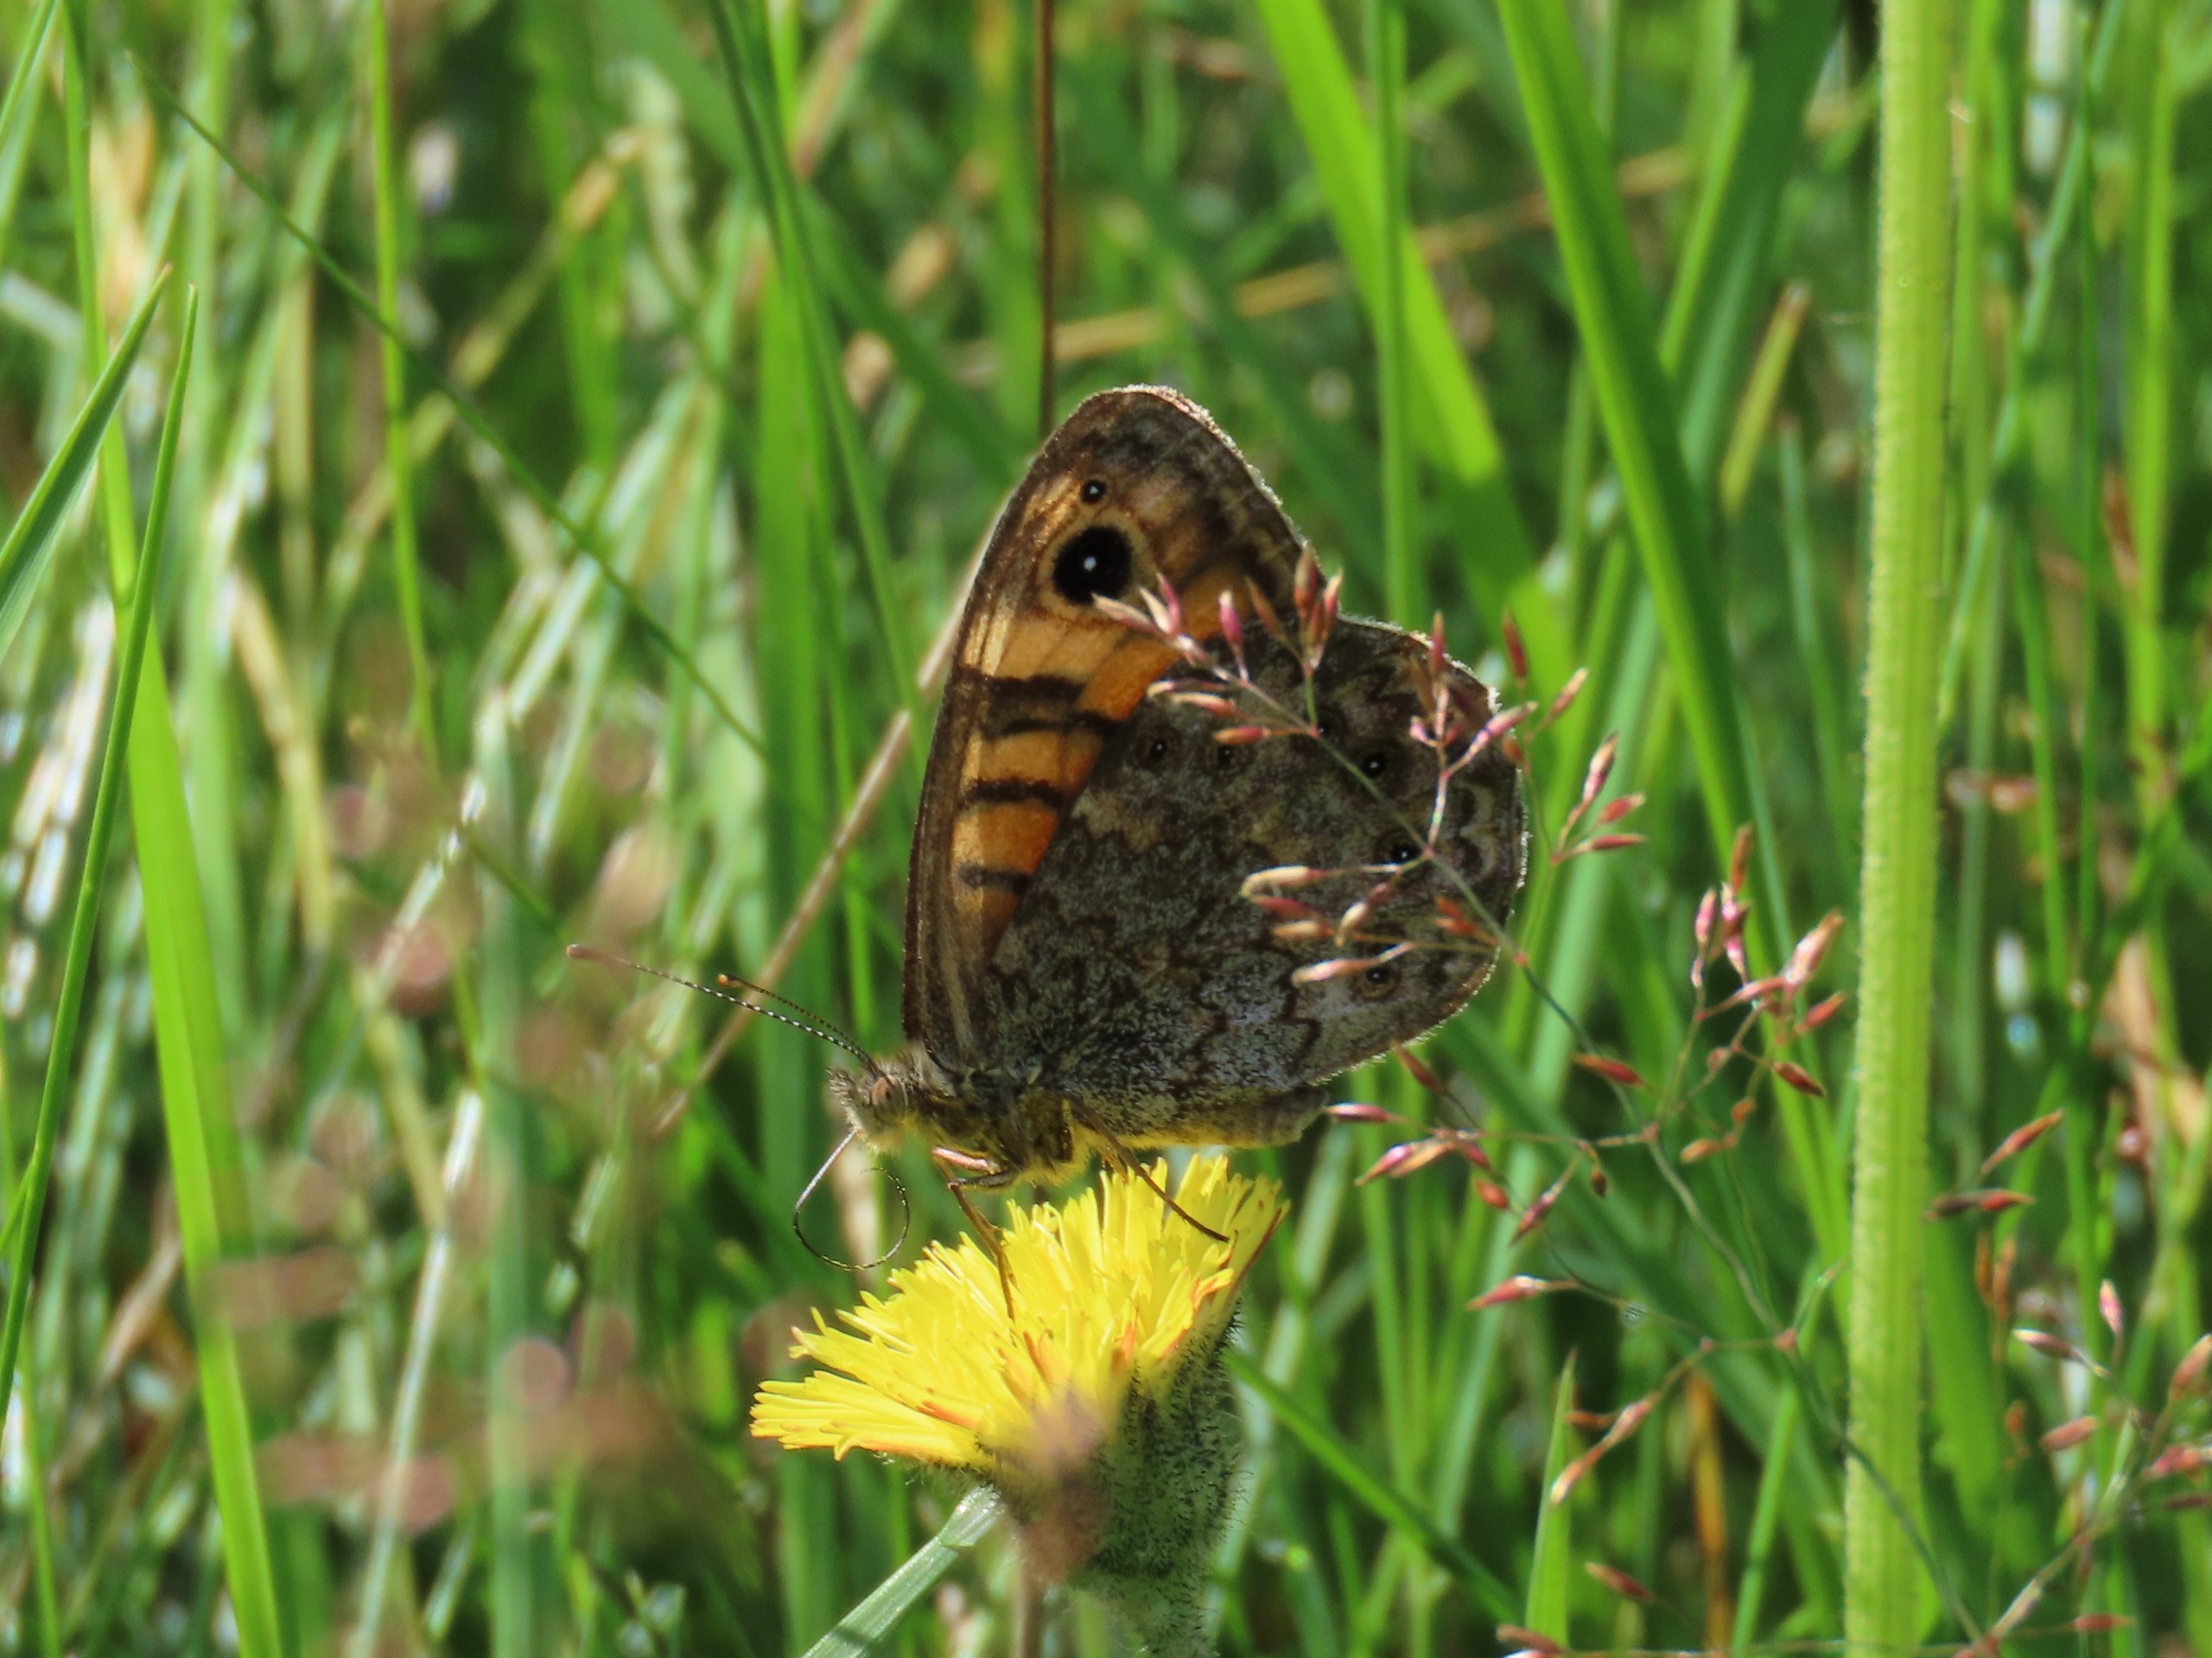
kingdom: Animalia
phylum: Arthropoda
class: Insecta
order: Lepidoptera
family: Nymphalidae
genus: Pararge
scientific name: Pararge Lasiommata megera
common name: Vejrandøje
